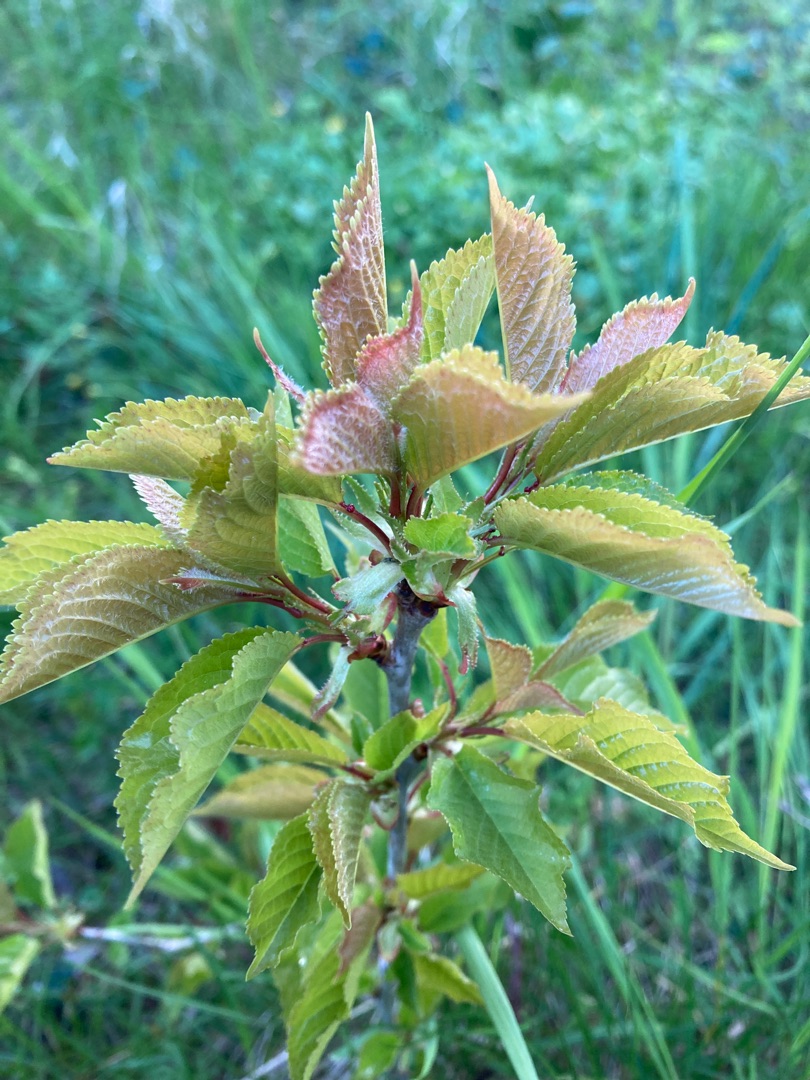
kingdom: Plantae
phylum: Tracheophyta
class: Magnoliopsida
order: Rosales
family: Rosaceae
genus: Prunus
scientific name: Prunus avium
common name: Fugle-kirsebær
